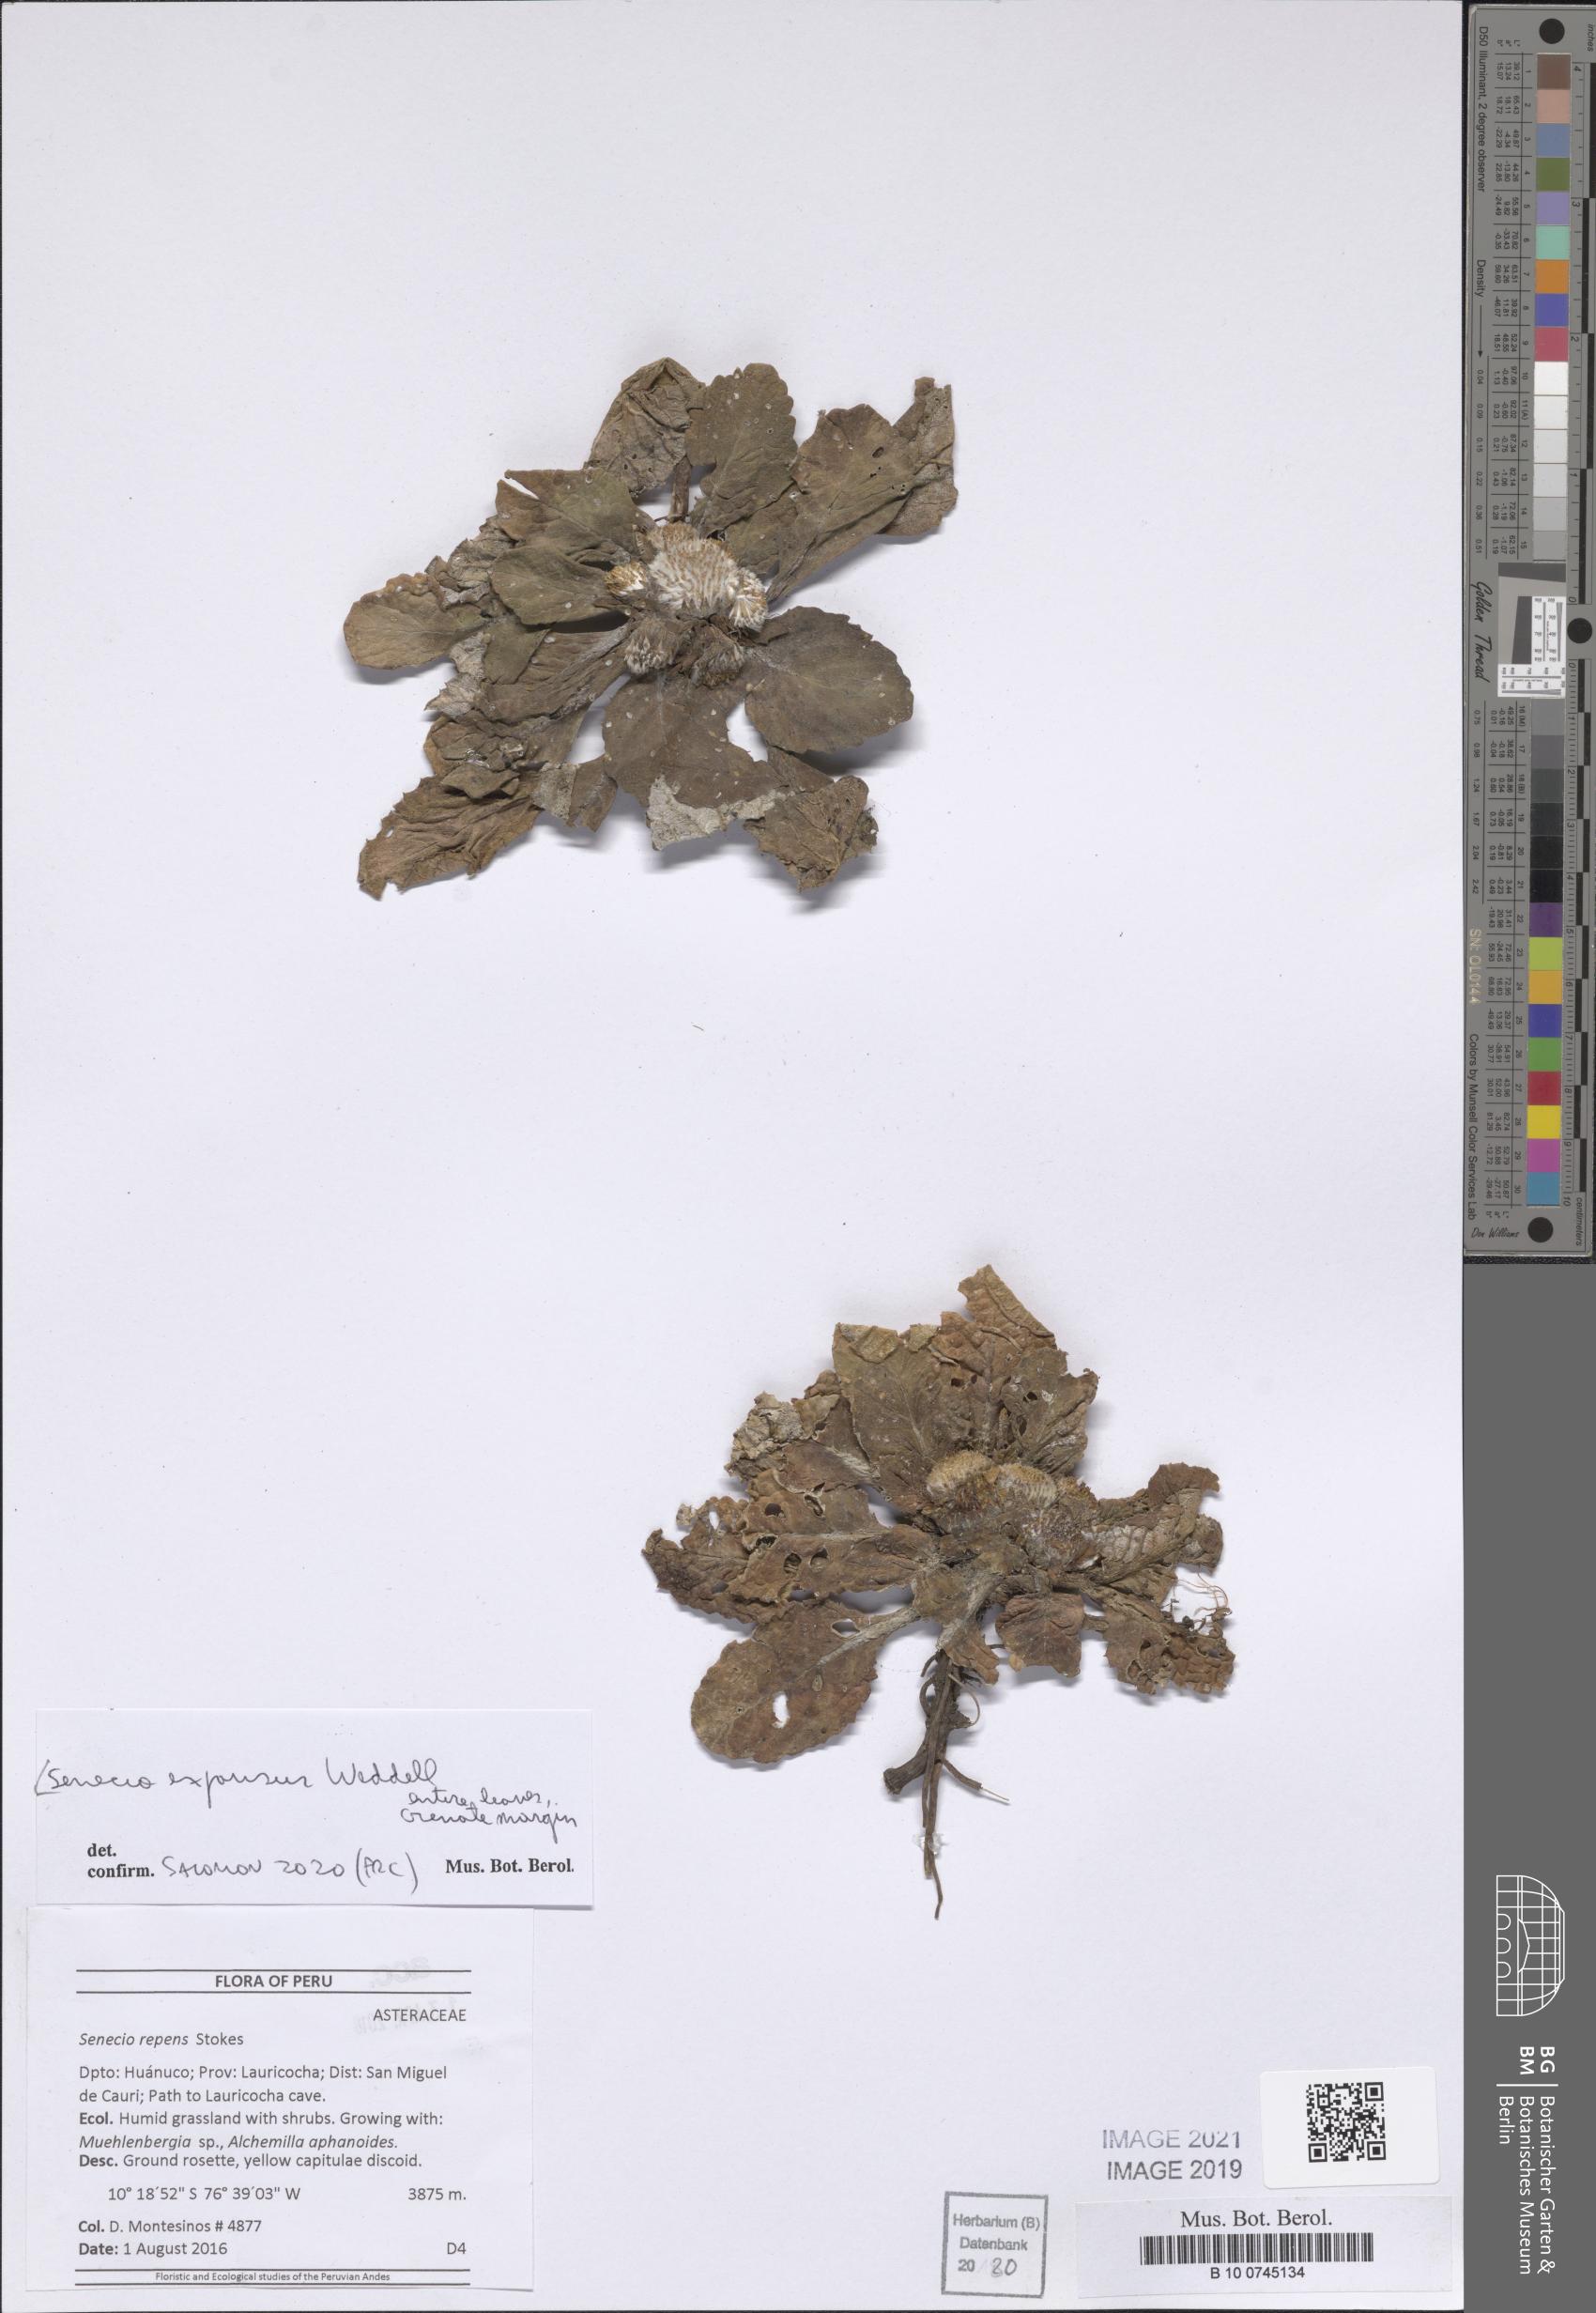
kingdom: Plantae
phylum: Tracheophyta
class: Magnoliopsida
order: Asterales
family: Asteraceae
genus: Senecio
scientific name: Senecio expansus
